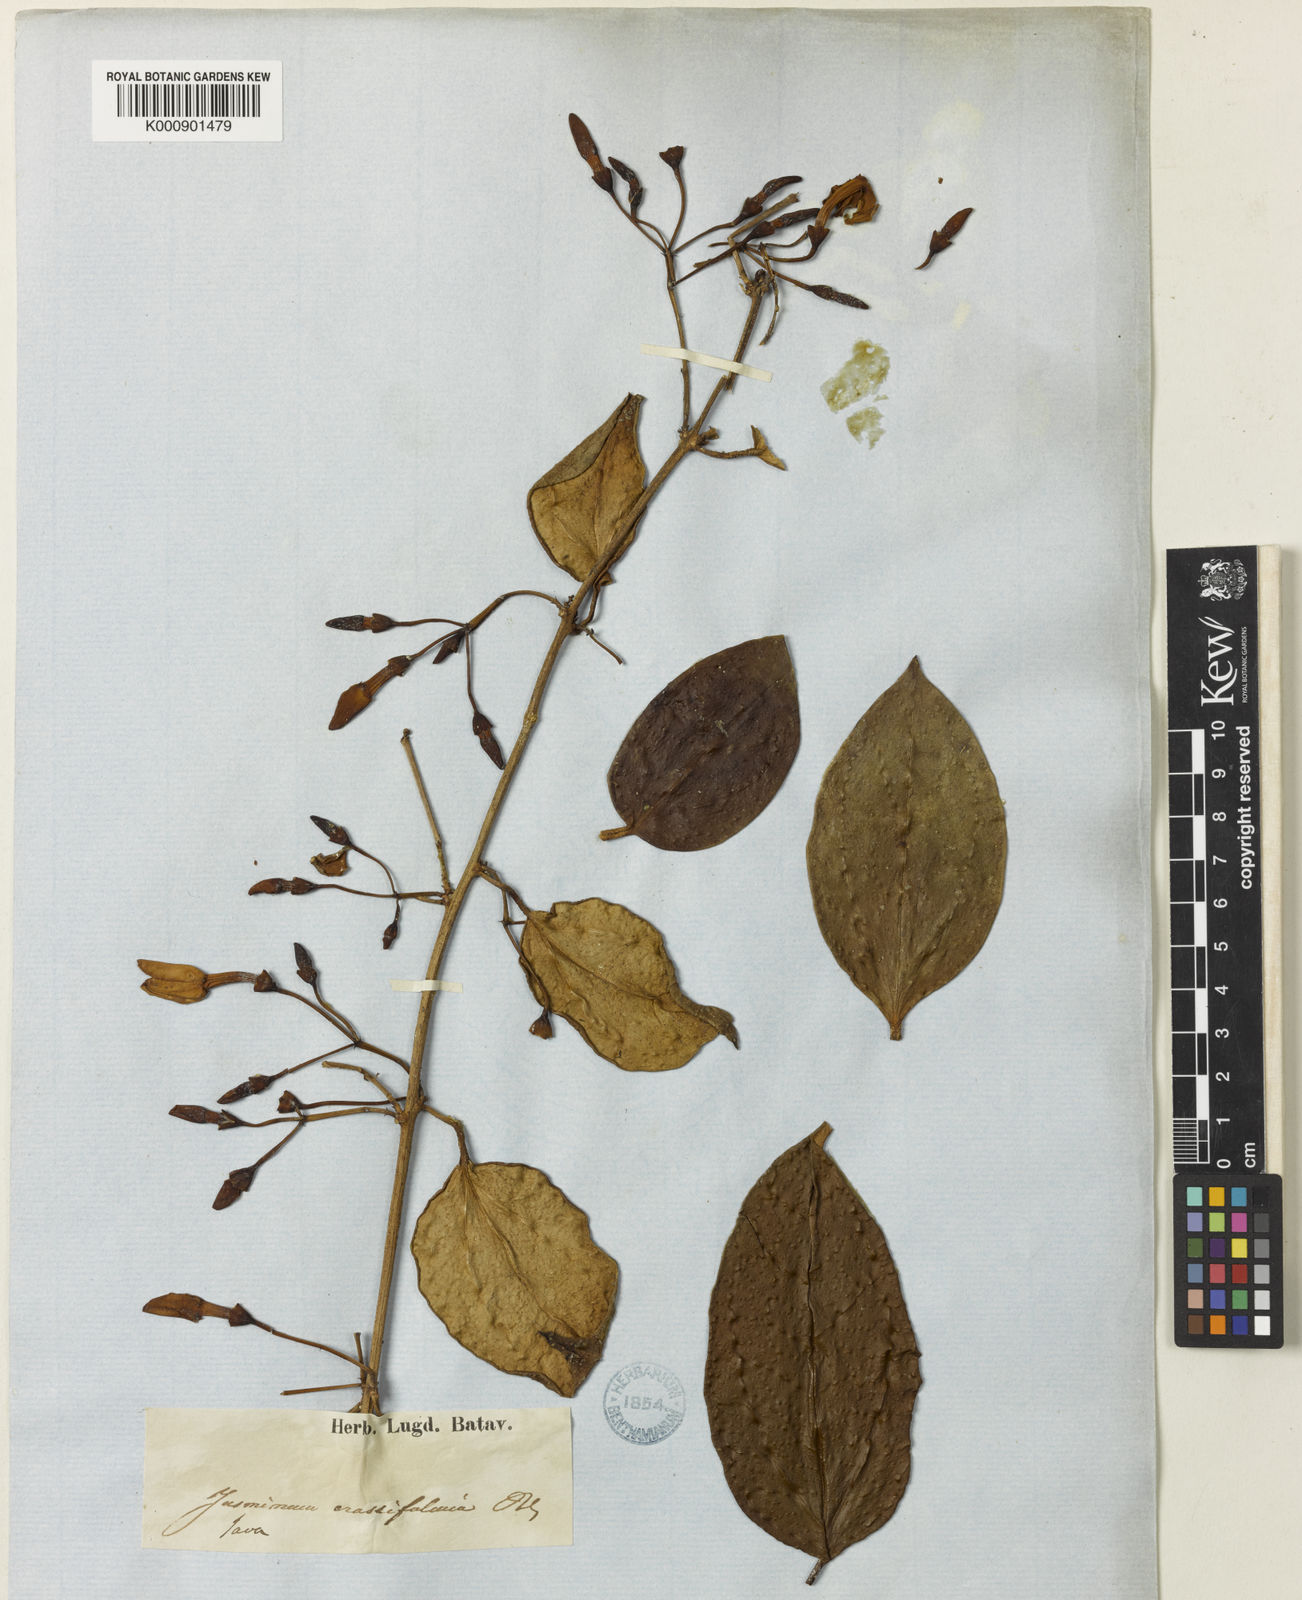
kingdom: Plantae
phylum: Tracheophyta
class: Magnoliopsida
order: Lamiales
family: Oleaceae
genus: Jasminum
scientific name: Jasminum crassifolium
